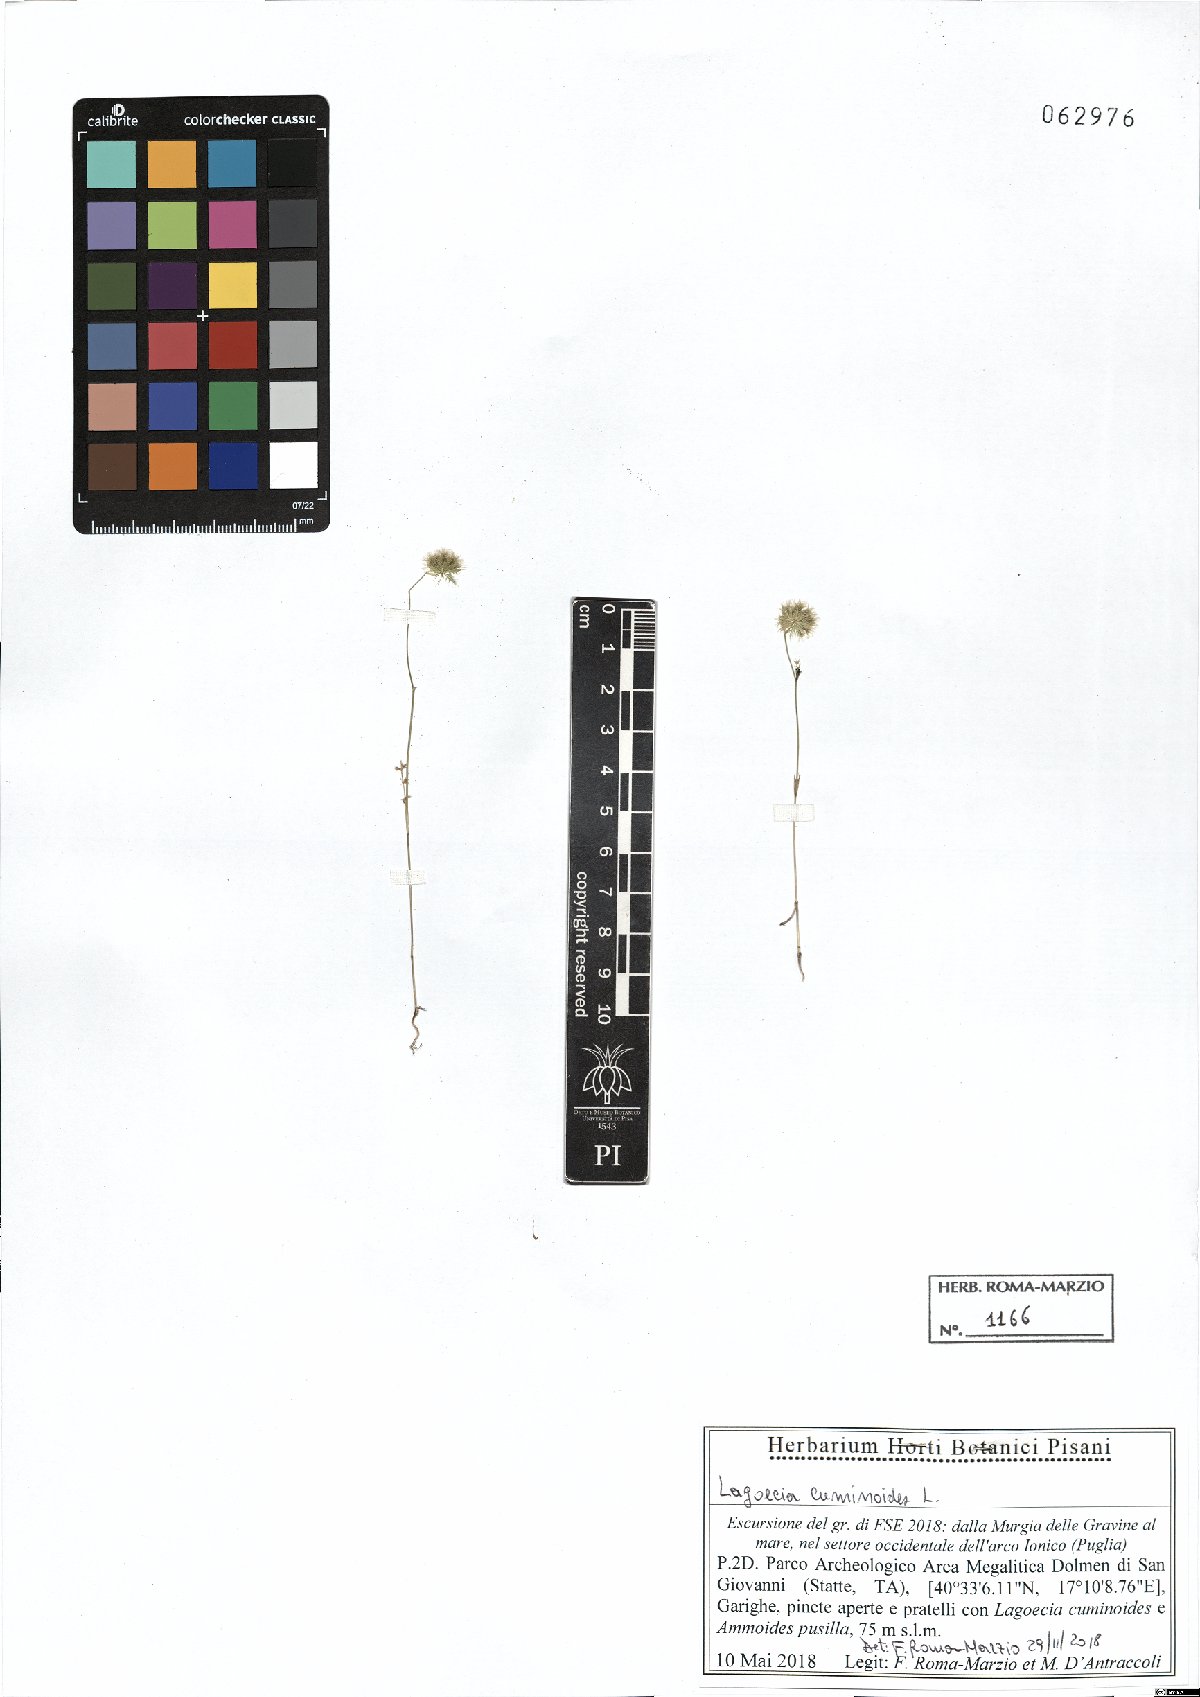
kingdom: Plantae
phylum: Tracheophyta
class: Magnoliopsida
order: Apiales
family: Apiaceae
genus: Lagoecia
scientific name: Lagoecia cuminoides
